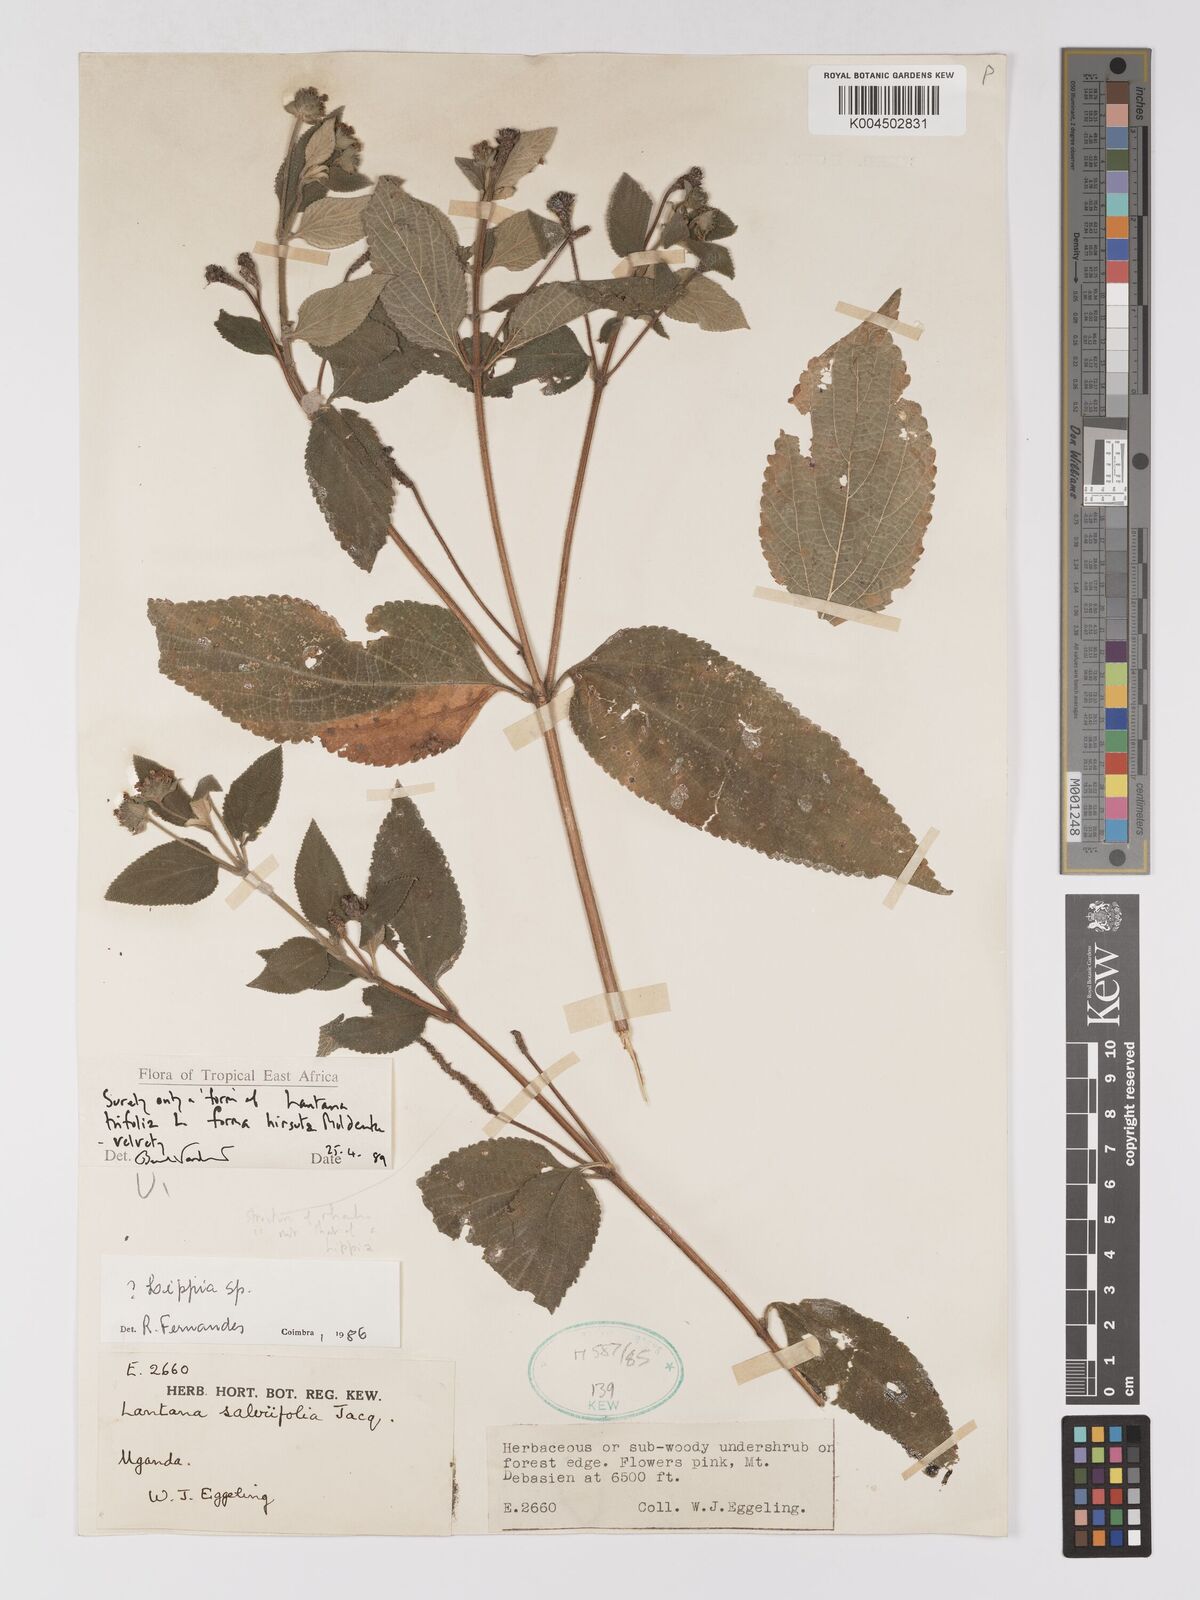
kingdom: Plantae
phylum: Tracheophyta
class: Magnoliopsida
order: Lamiales
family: Verbenaceae
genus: Lantana
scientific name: Lantana trifolia
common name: Sweet-sage
